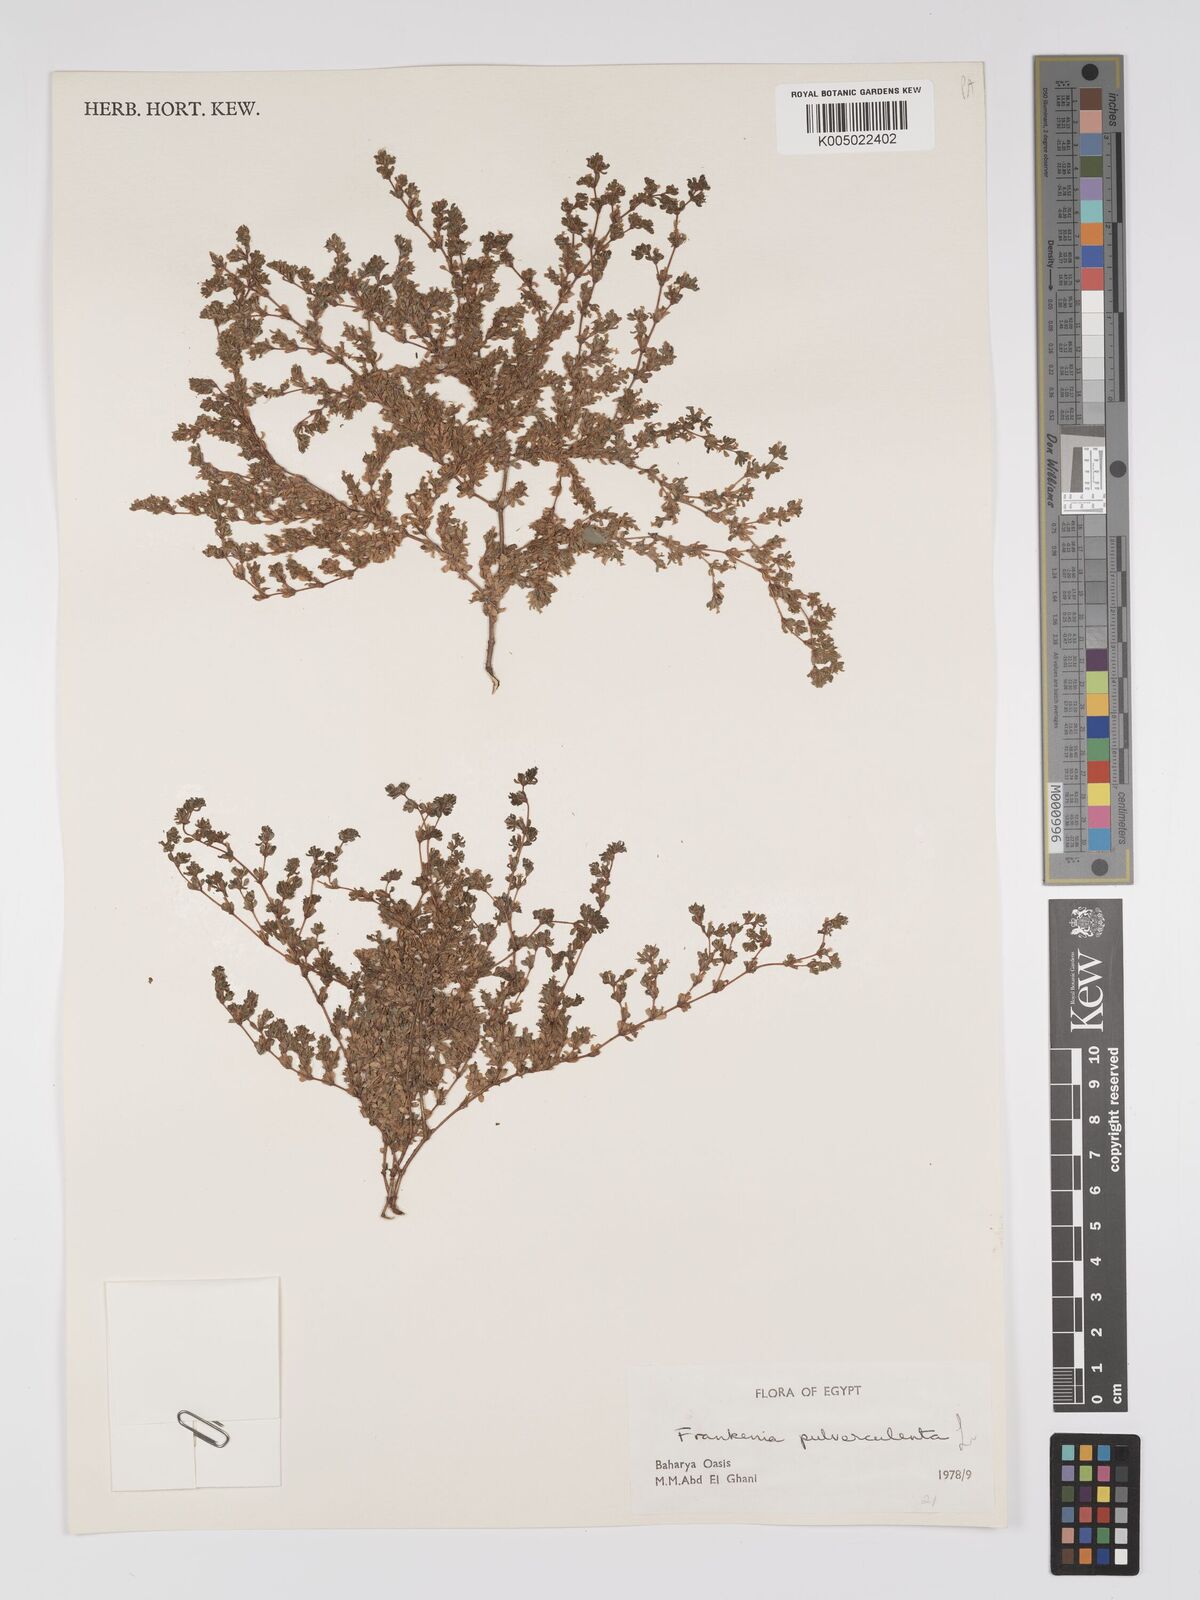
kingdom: Plantae
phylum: Tracheophyta
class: Magnoliopsida
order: Caryophyllales
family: Frankeniaceae
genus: Frankenia
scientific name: Frankenia pulverulenta
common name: European seaheath
